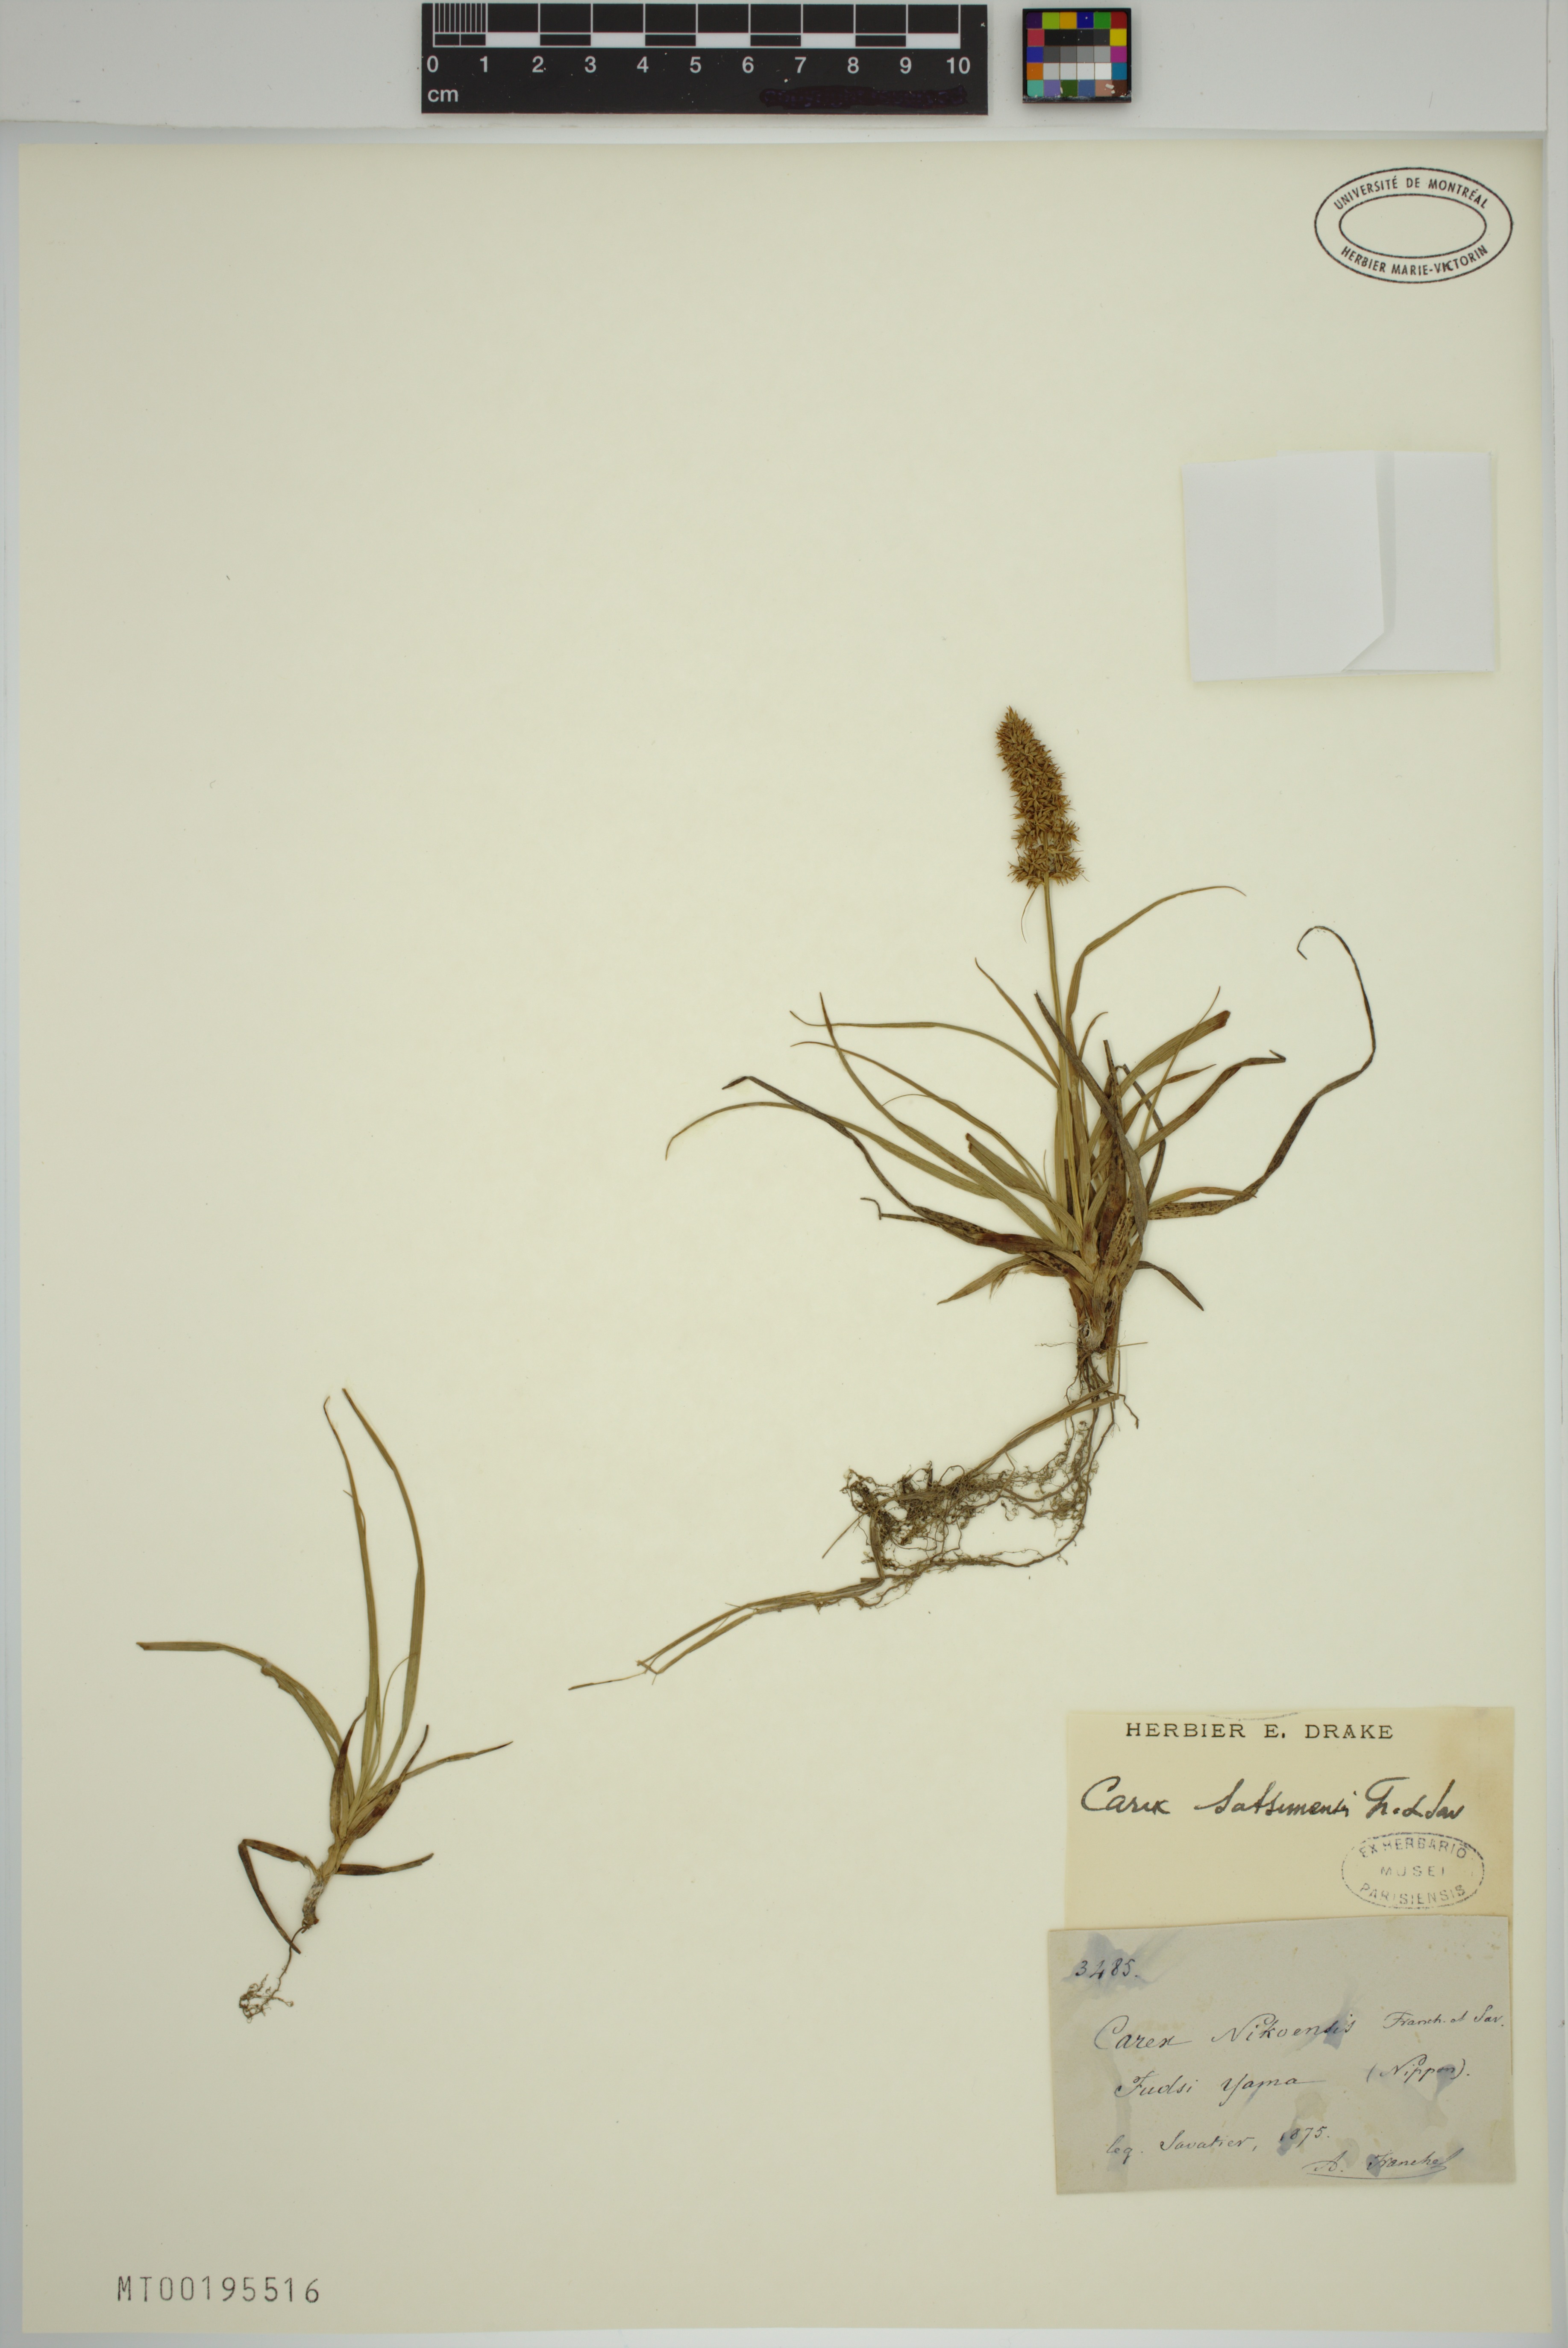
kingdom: Plantae
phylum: Tracheophyta
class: Liliopsida
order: Poales
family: Cyperaceae
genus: Carex
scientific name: Carex satsumensis
